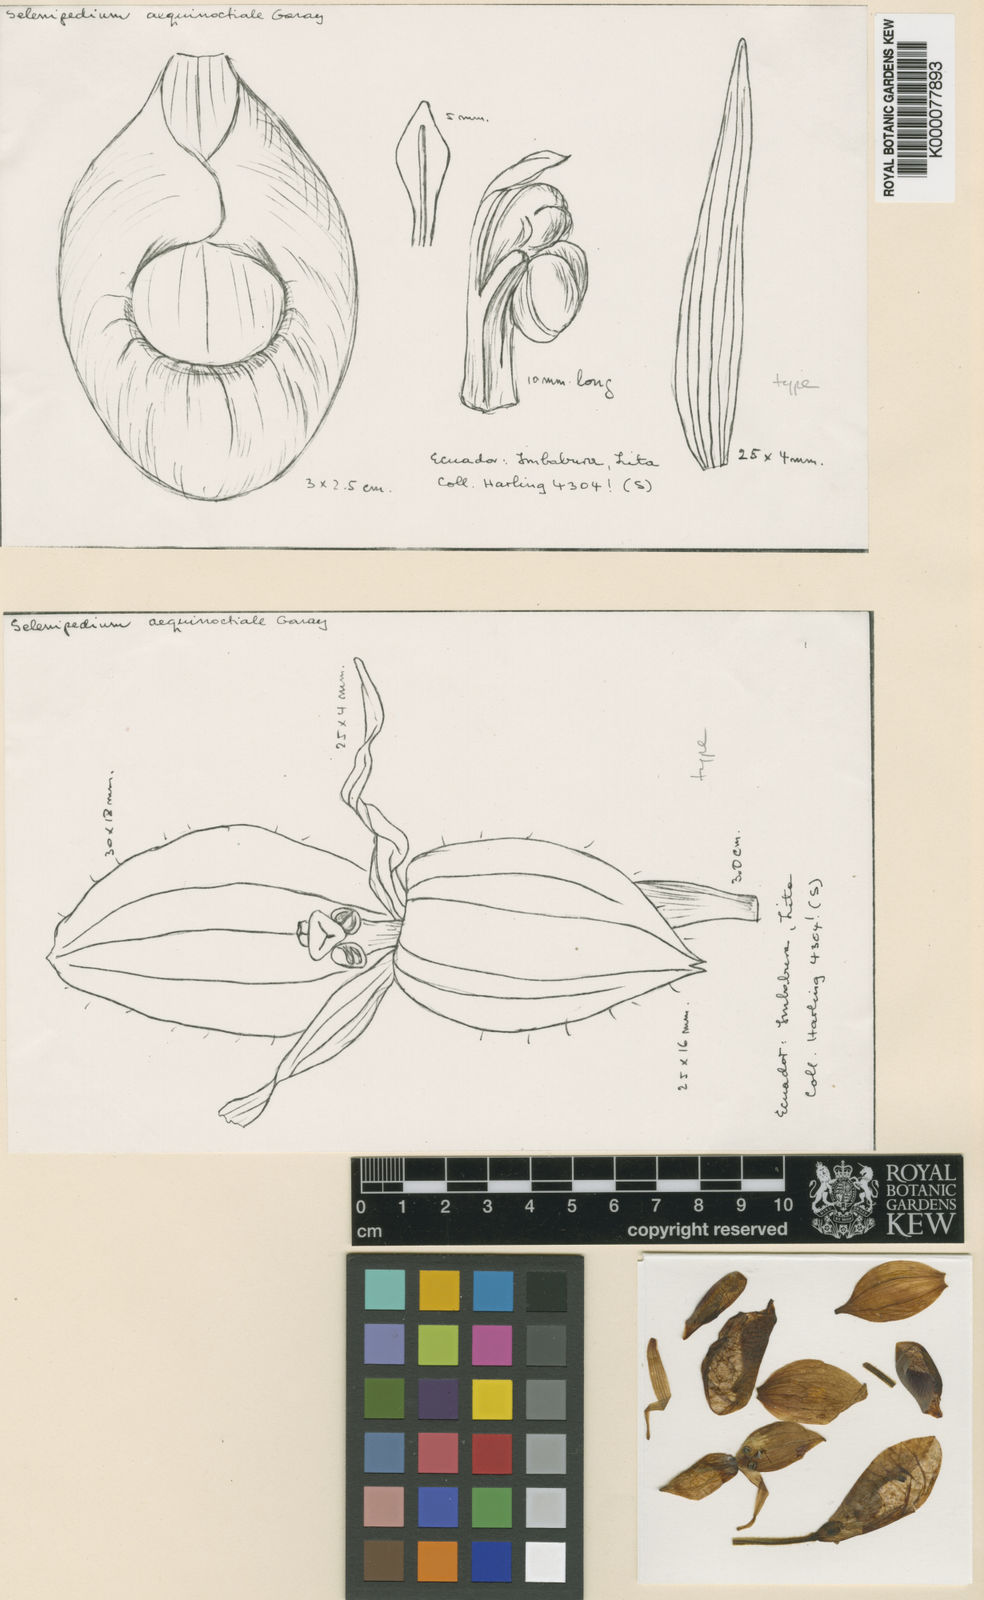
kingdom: Plantae
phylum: Tracheophyta
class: Liliopsida
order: Asparagales
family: Orchidaceae
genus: Selenipedium
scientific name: Selenipedium aequinoctiale
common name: Equatorial ocurring selenipidum
